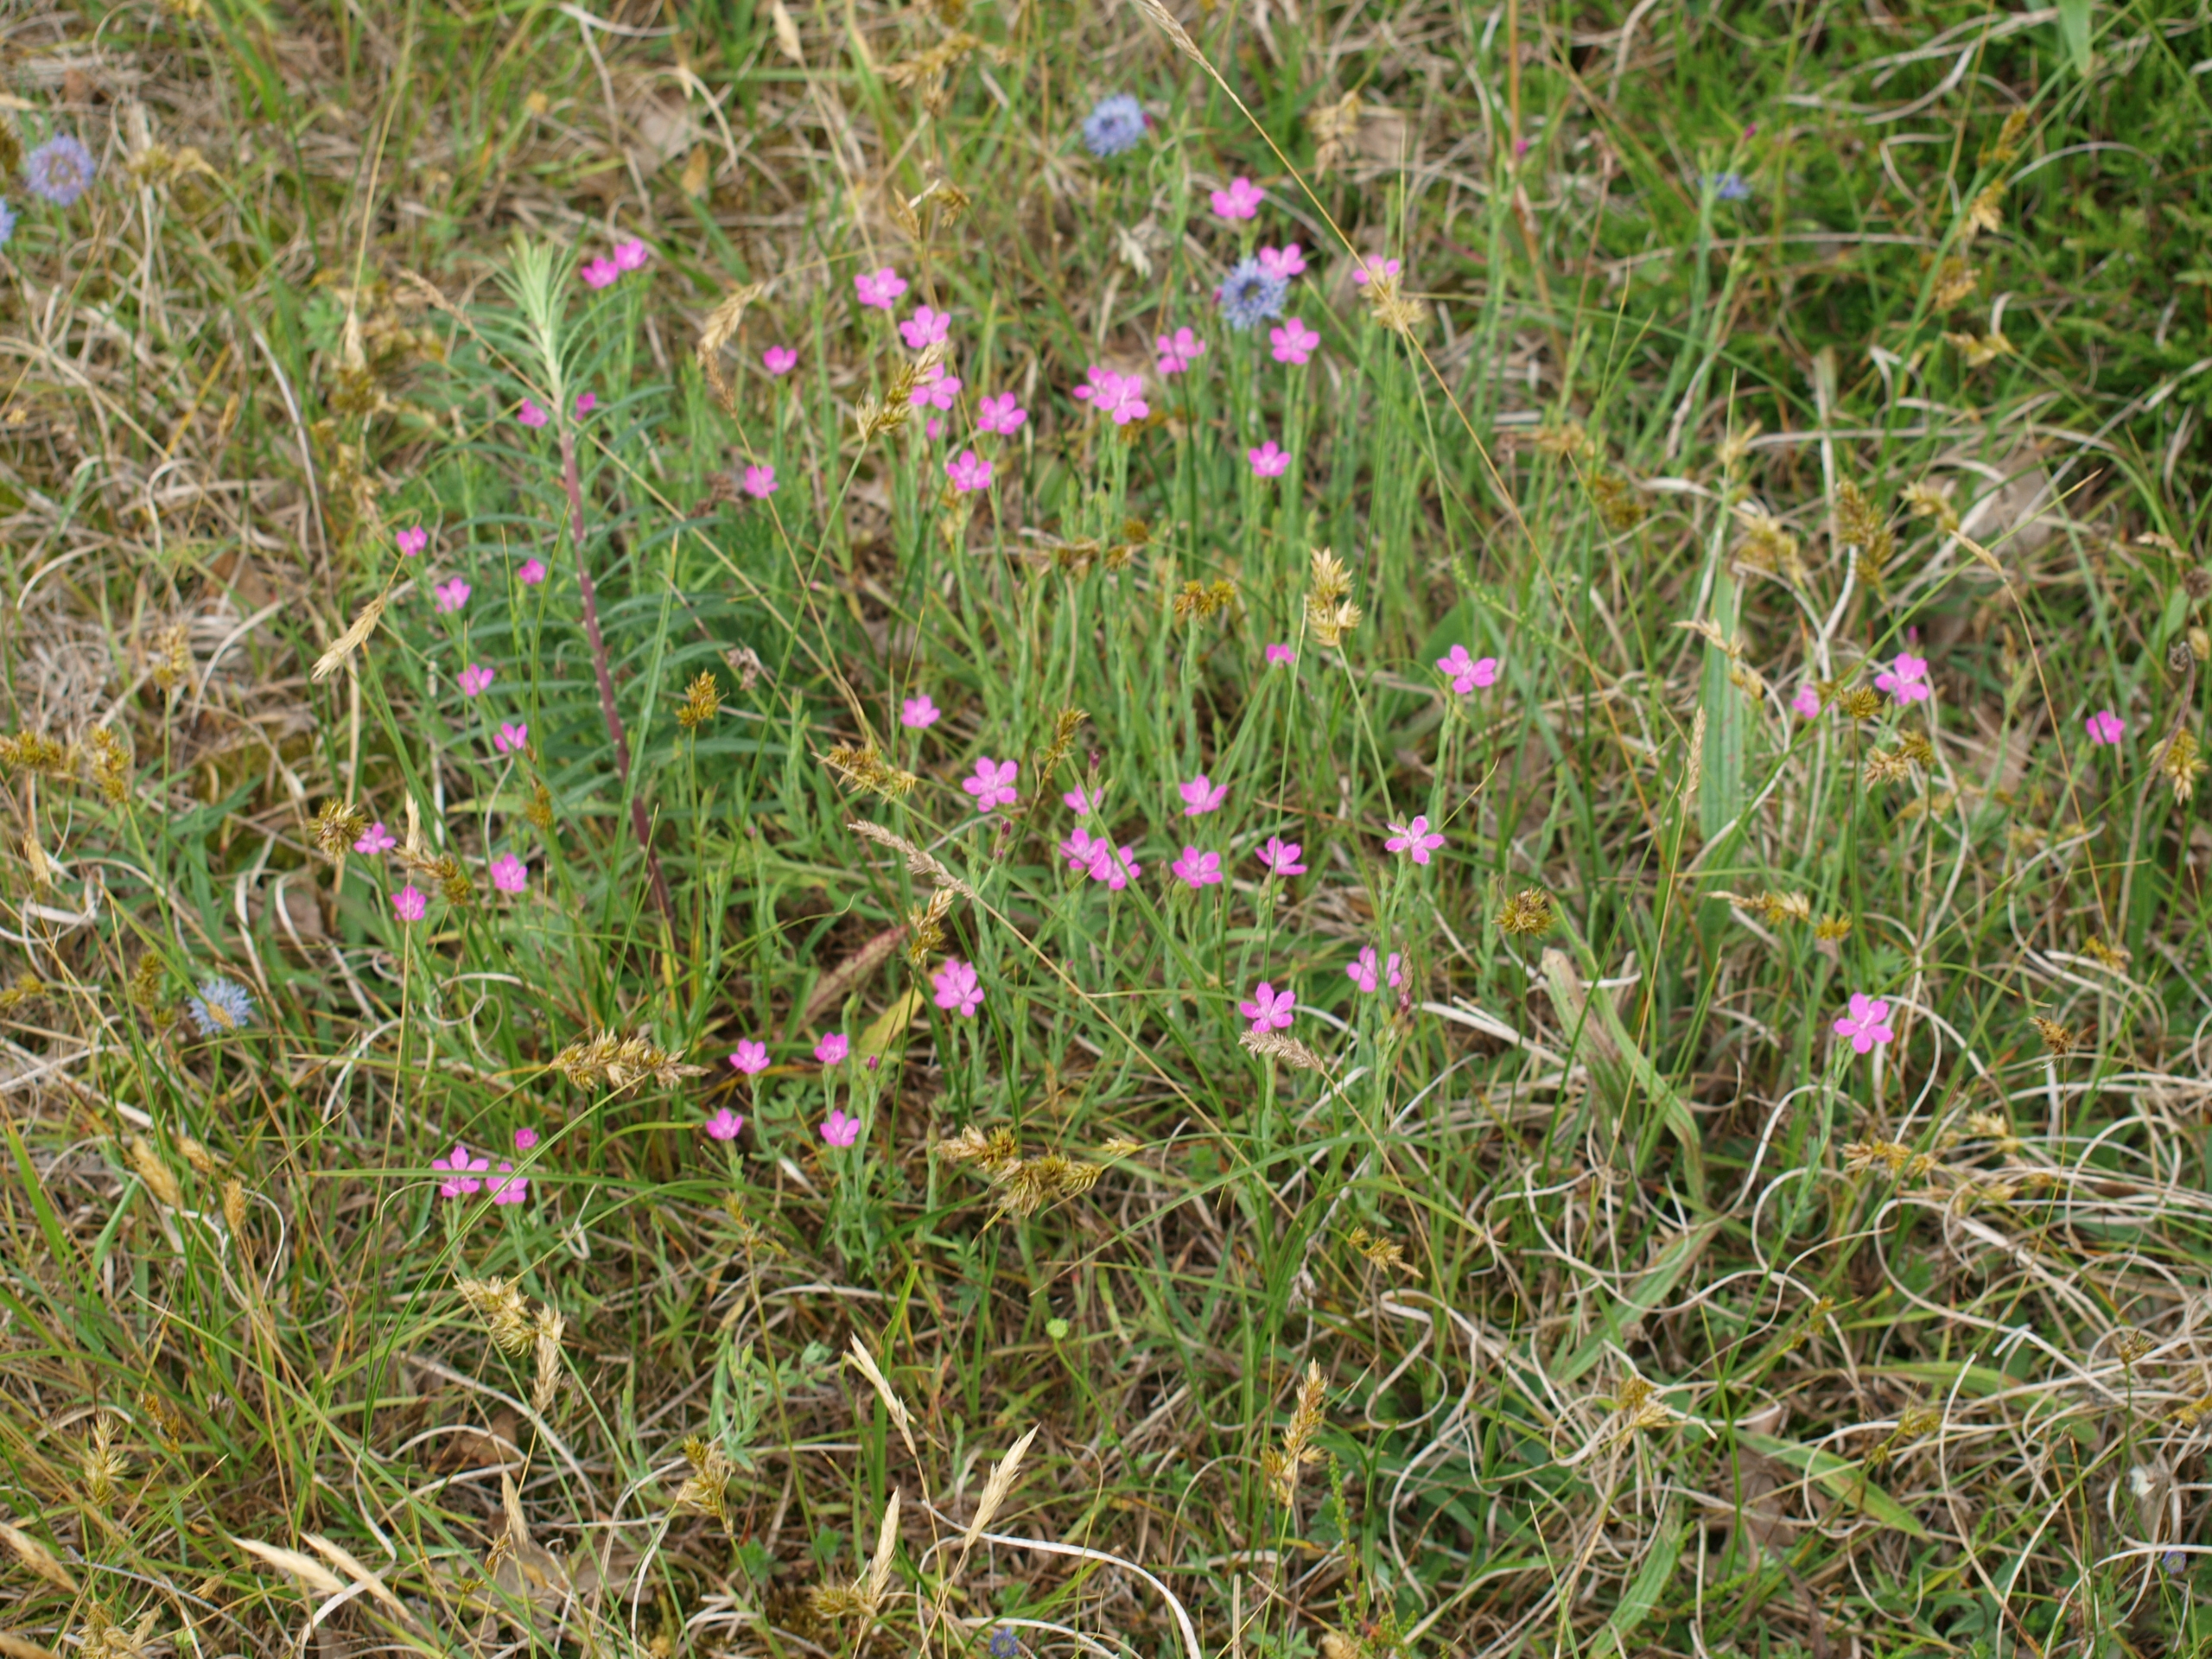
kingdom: Plantae
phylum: Tracheophyta
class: Magnoliopsida
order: Caryophyllales
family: Caryophyllaceae
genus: Dianthus
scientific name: Dianthus deltoides
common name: Bakke-nellike
